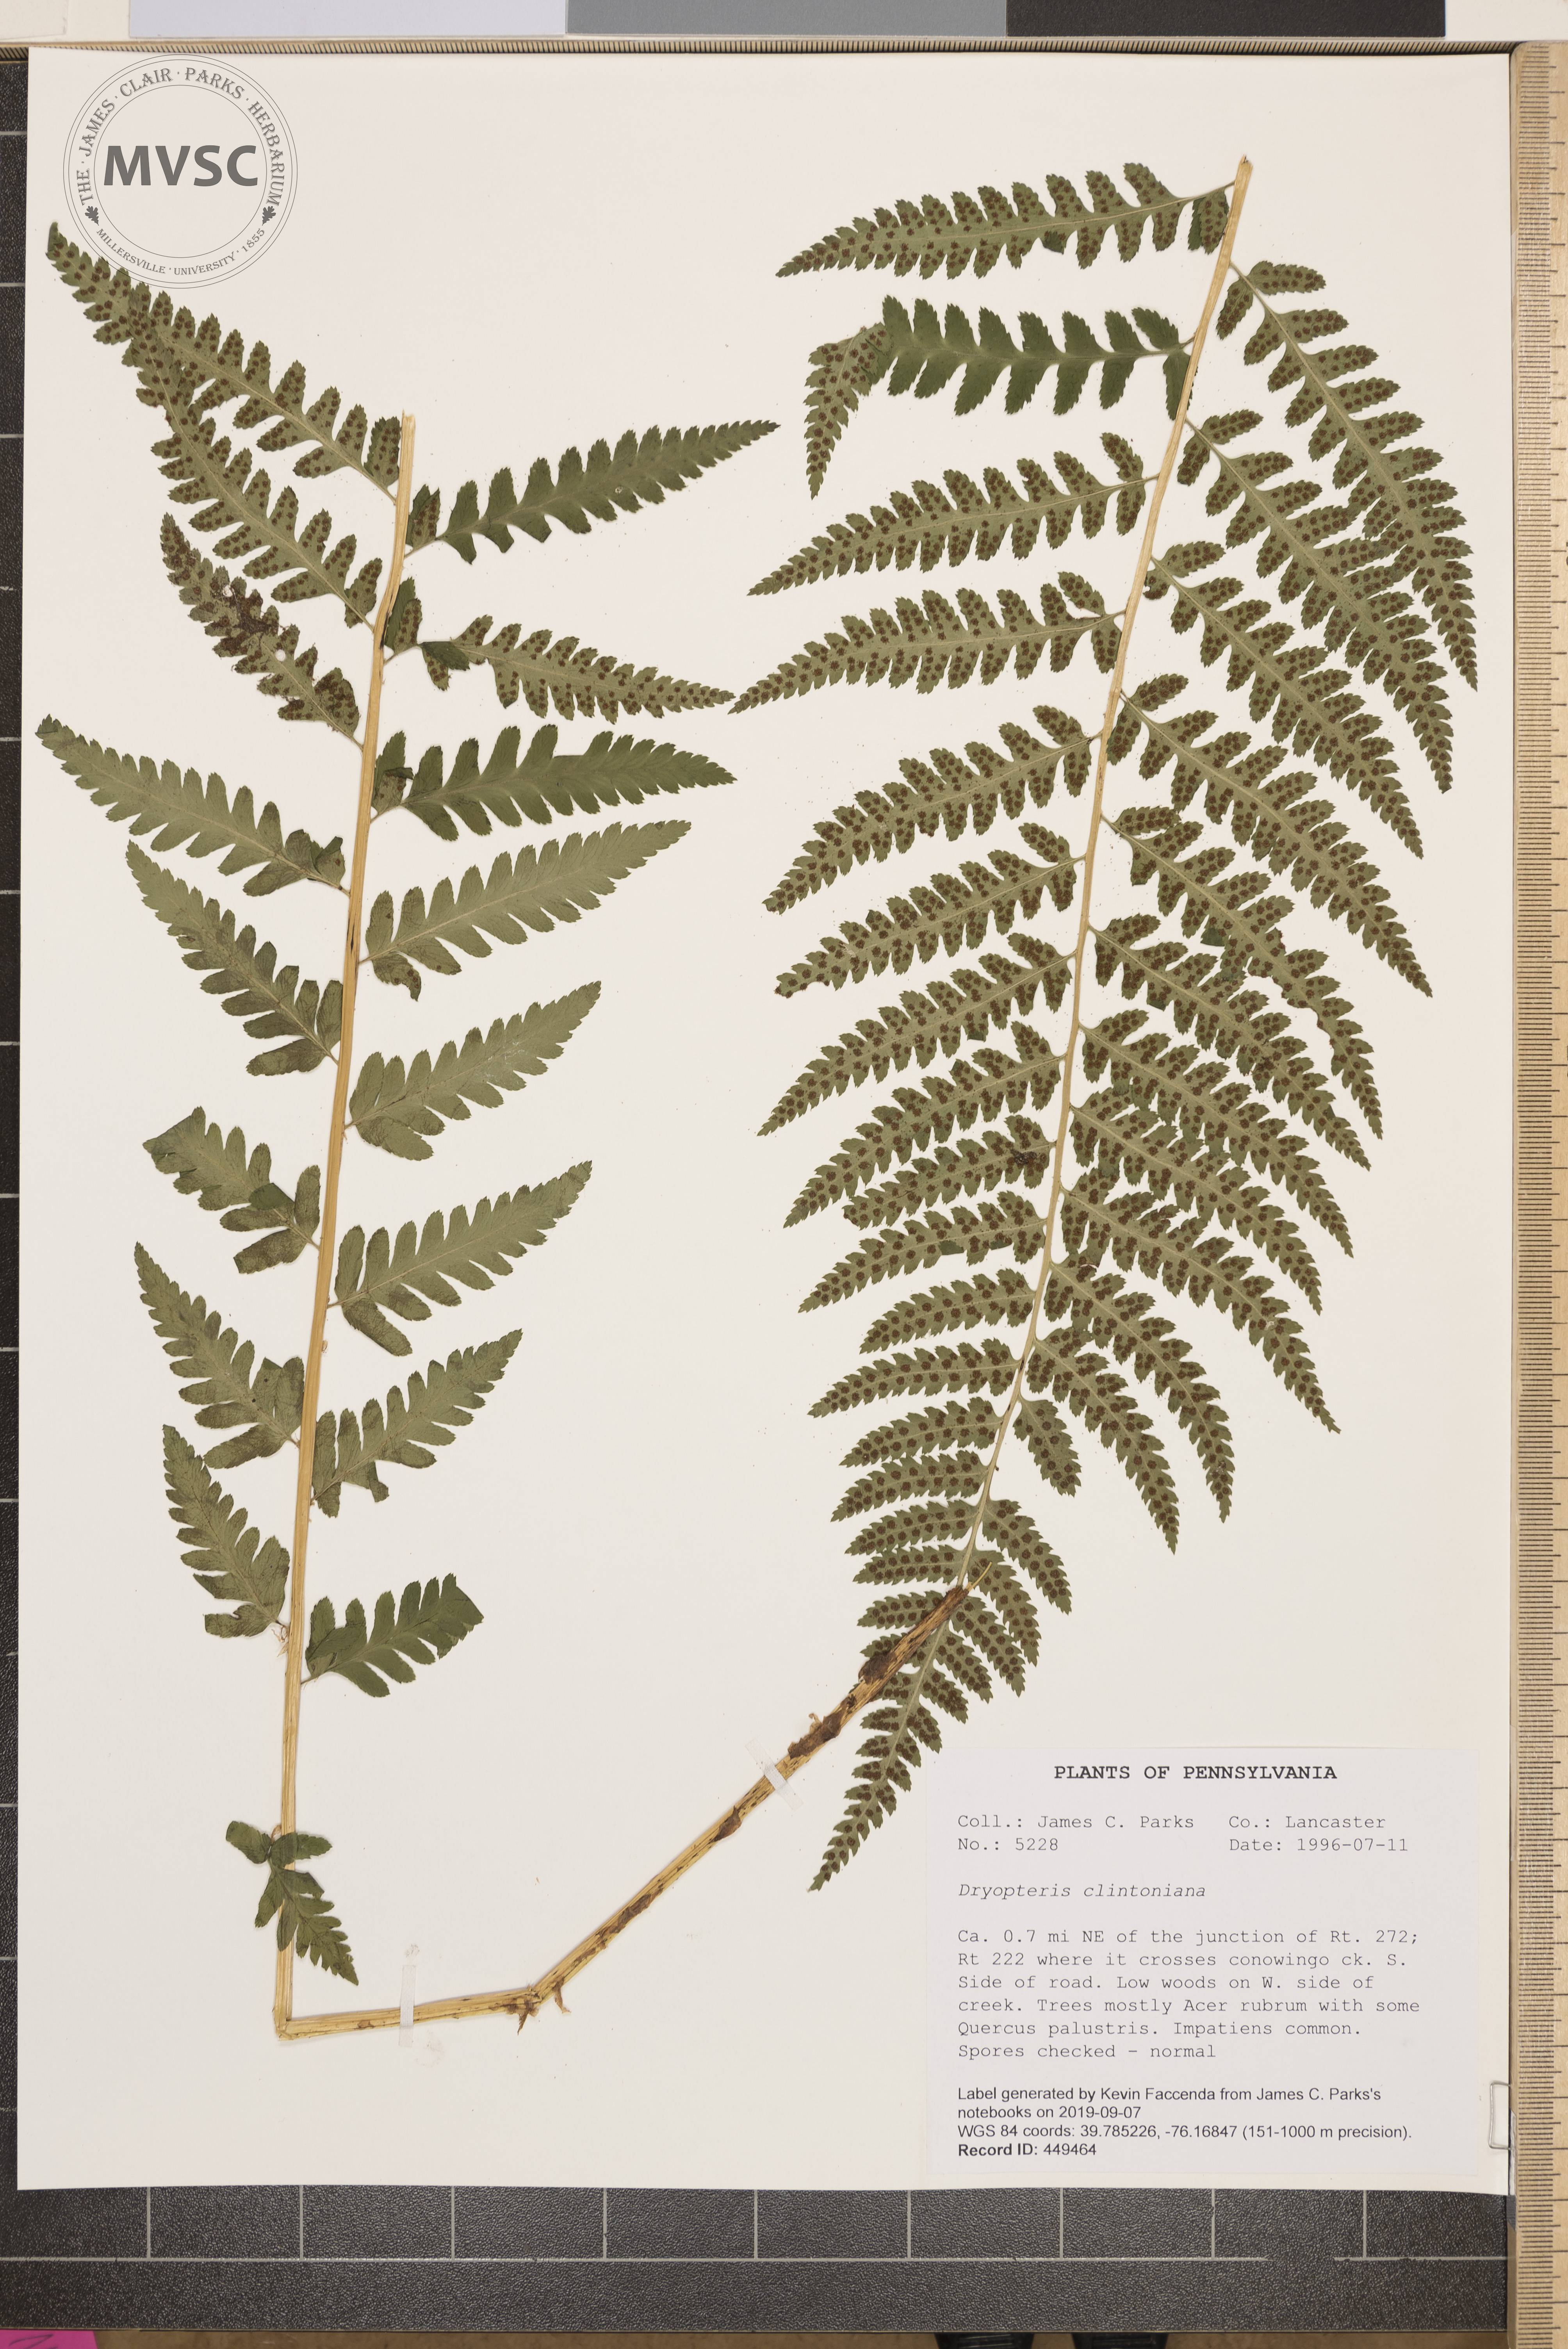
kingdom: Plantae
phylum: Tracheophyta
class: Polypodiopsida
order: Polypodiales
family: Dryopteridaceae
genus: Dryopteris
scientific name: Dryopteris clintoniana
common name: Clinton's wood fern
